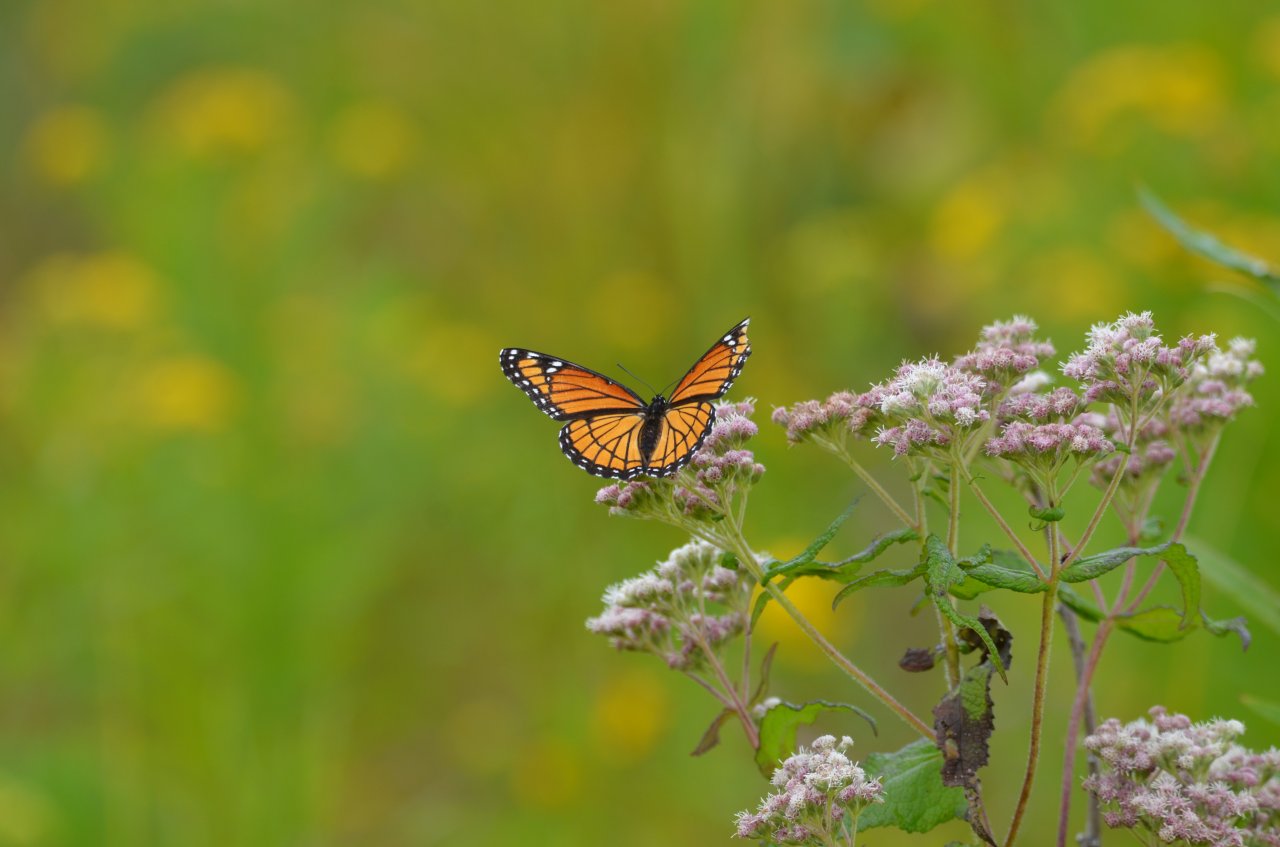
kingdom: Animalia
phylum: Arthropoda
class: Insecta
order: Lepidoptera
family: Nymphalidae
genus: Limenitis
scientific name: Limenitis archippus
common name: Viceroy
